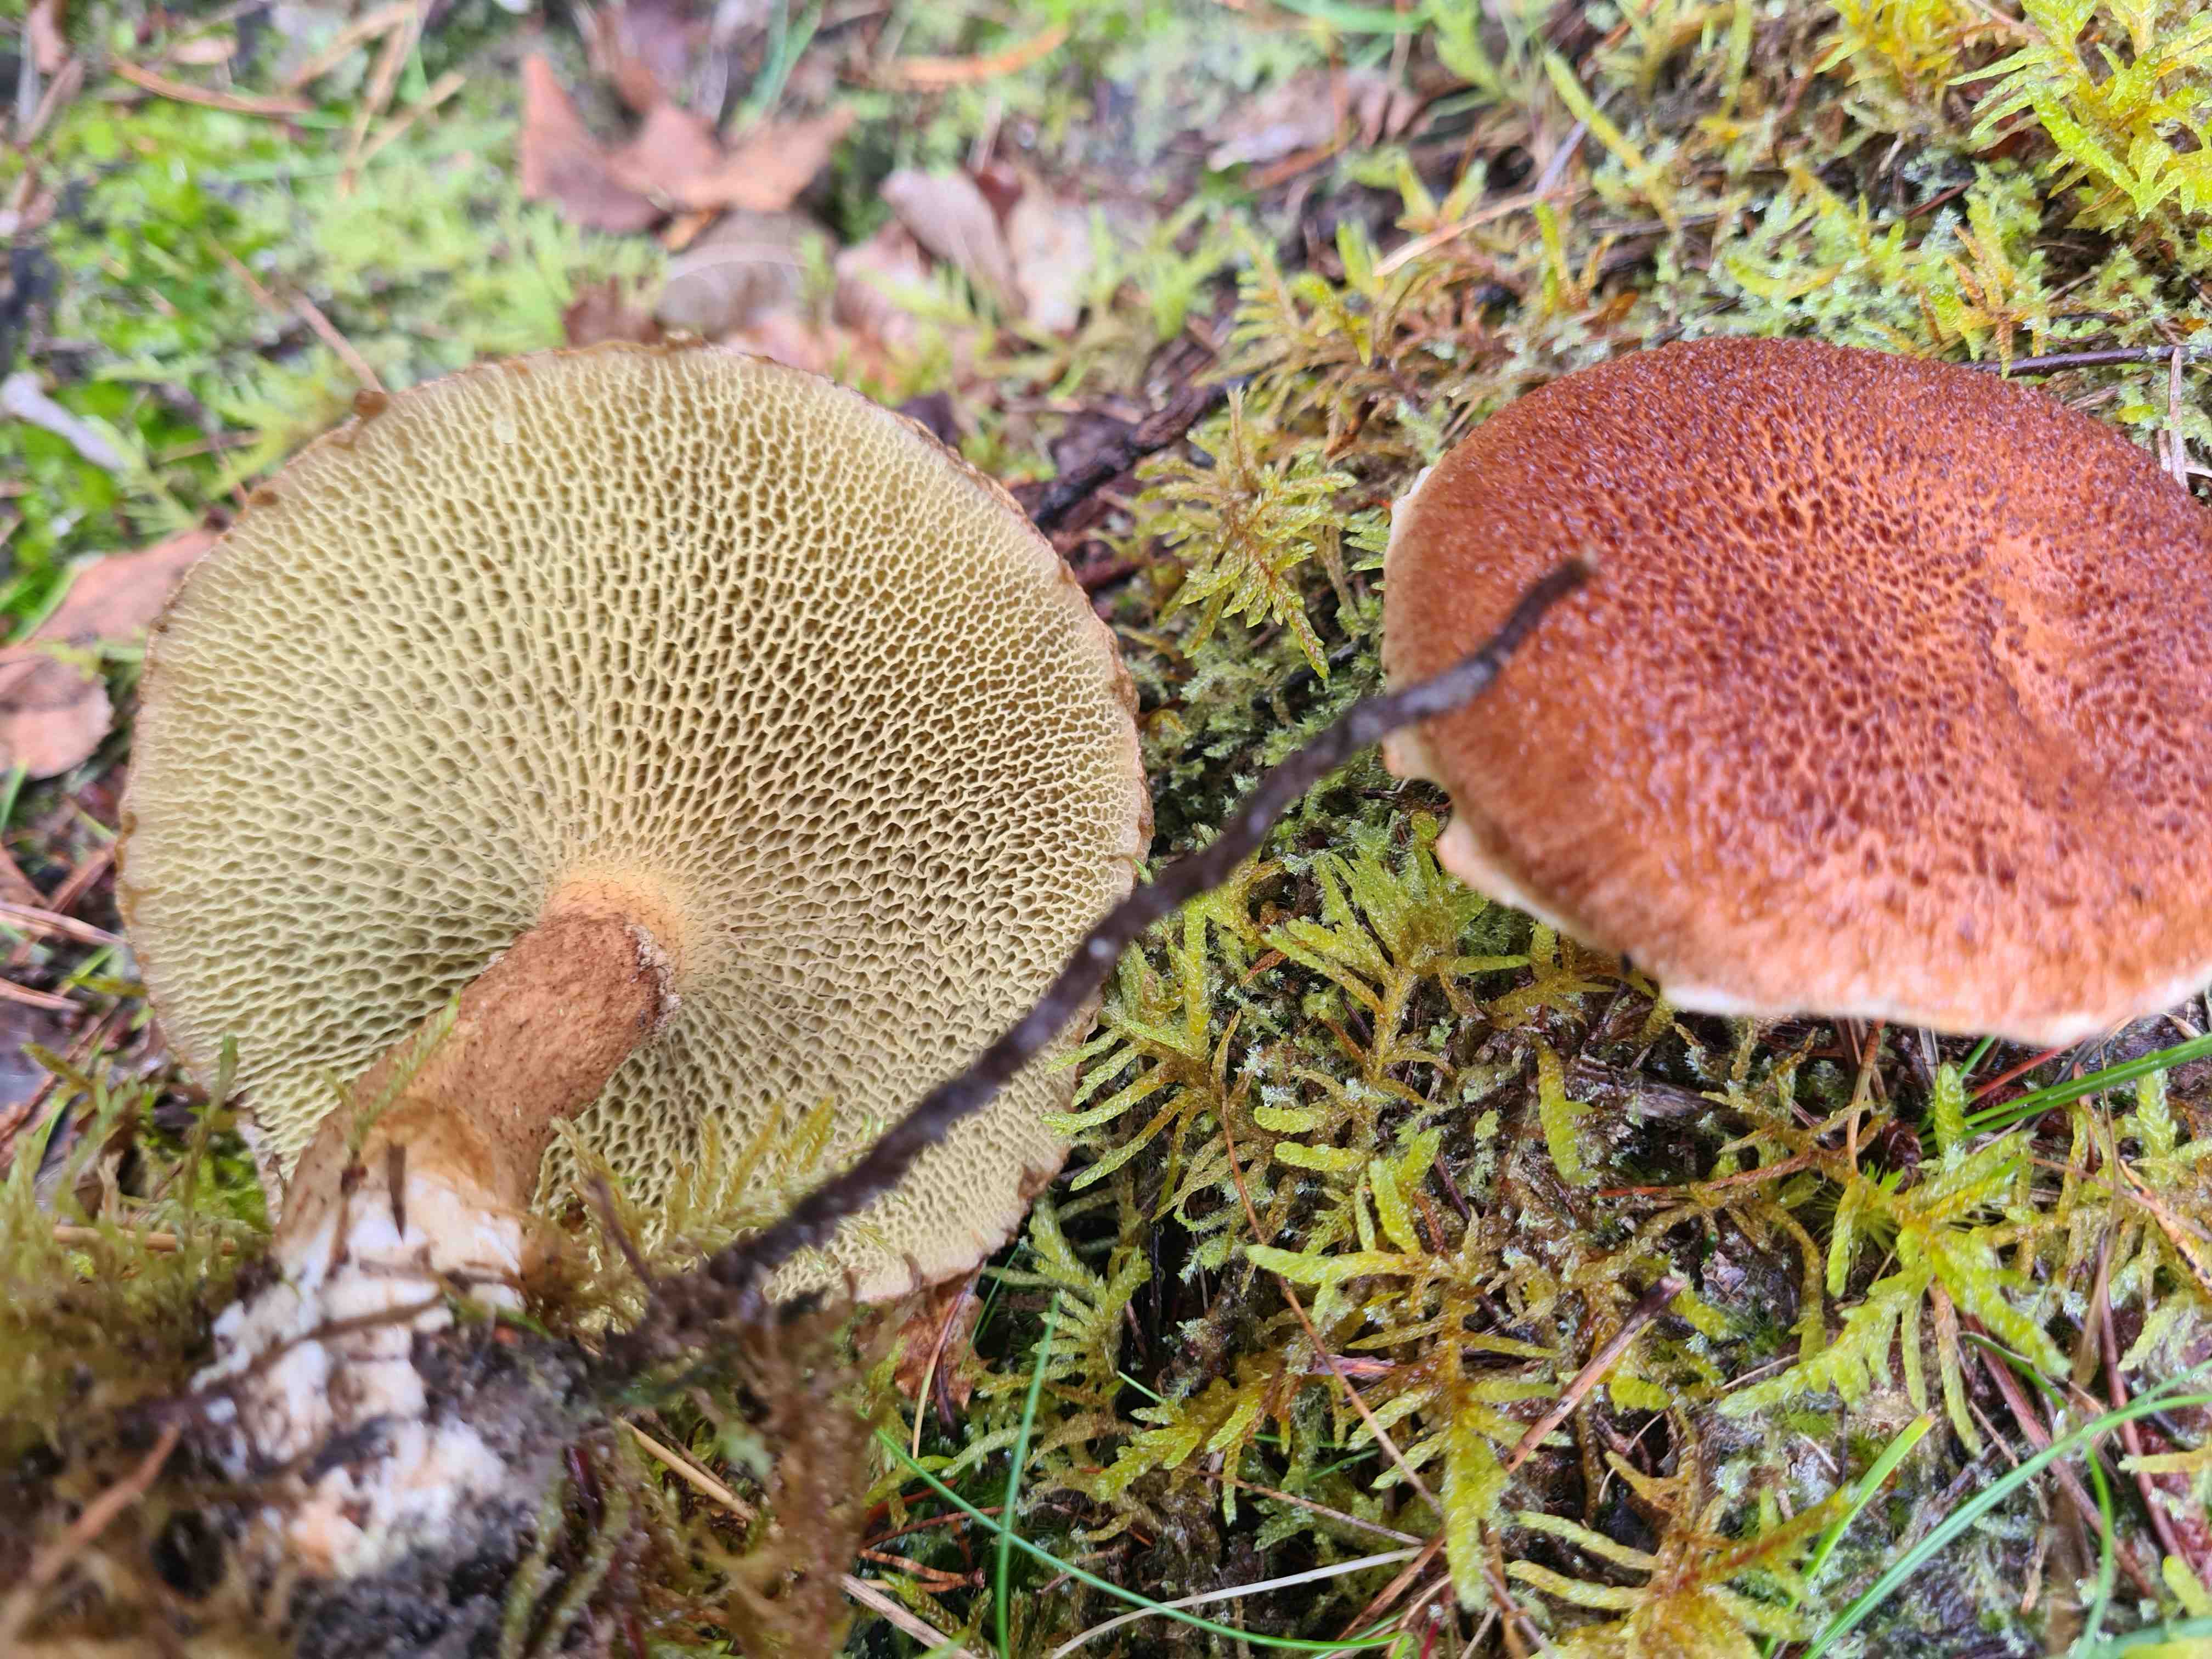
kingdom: Fungi
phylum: Basidiomycota
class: Agaricomycetes
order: Boletales
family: Suillaceae
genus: Suillus
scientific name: Suillus cavipes
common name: hulstokket slimrørhat
